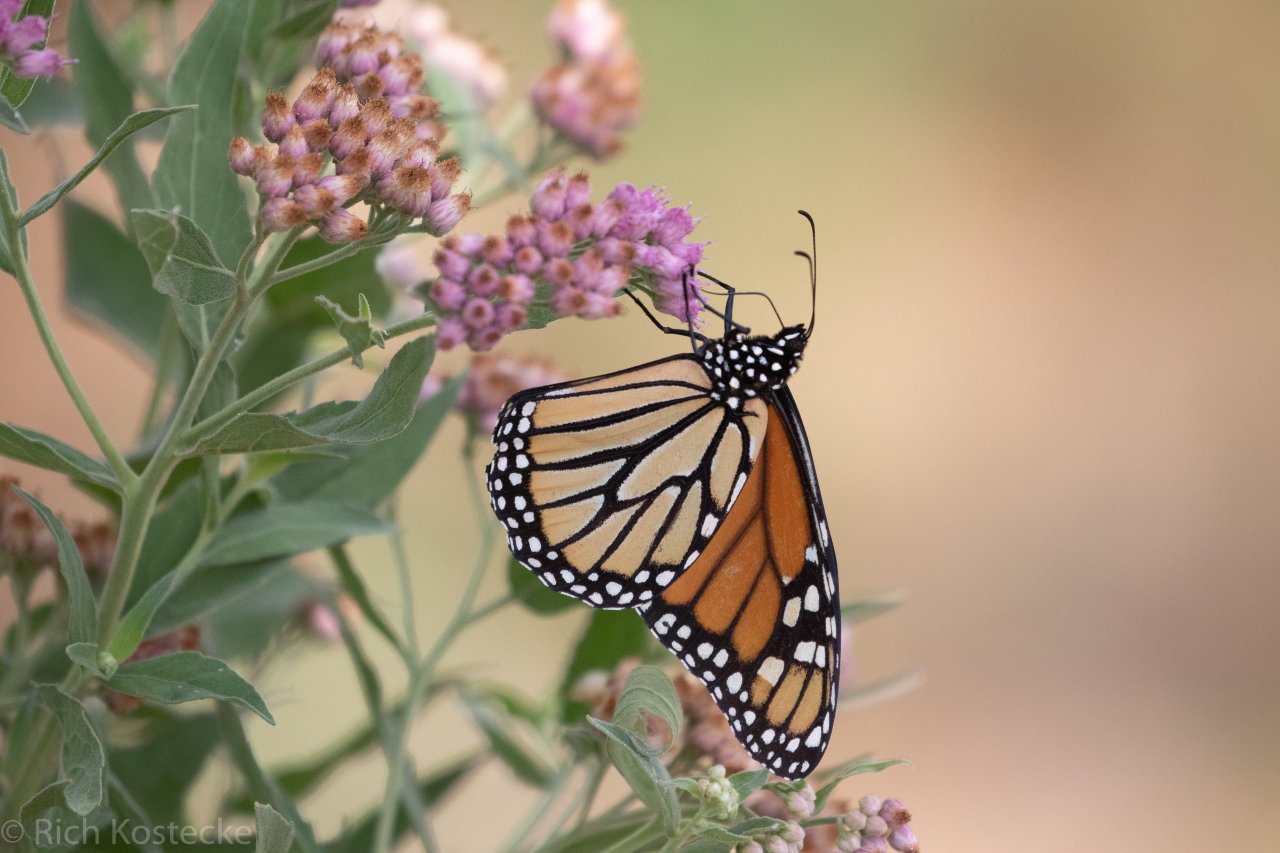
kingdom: Animalia
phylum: Arthropoda
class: Insecta
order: Lepidoptera
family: Nymphalidae
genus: Danaus
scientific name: Danaus plexippus
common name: Monarch
